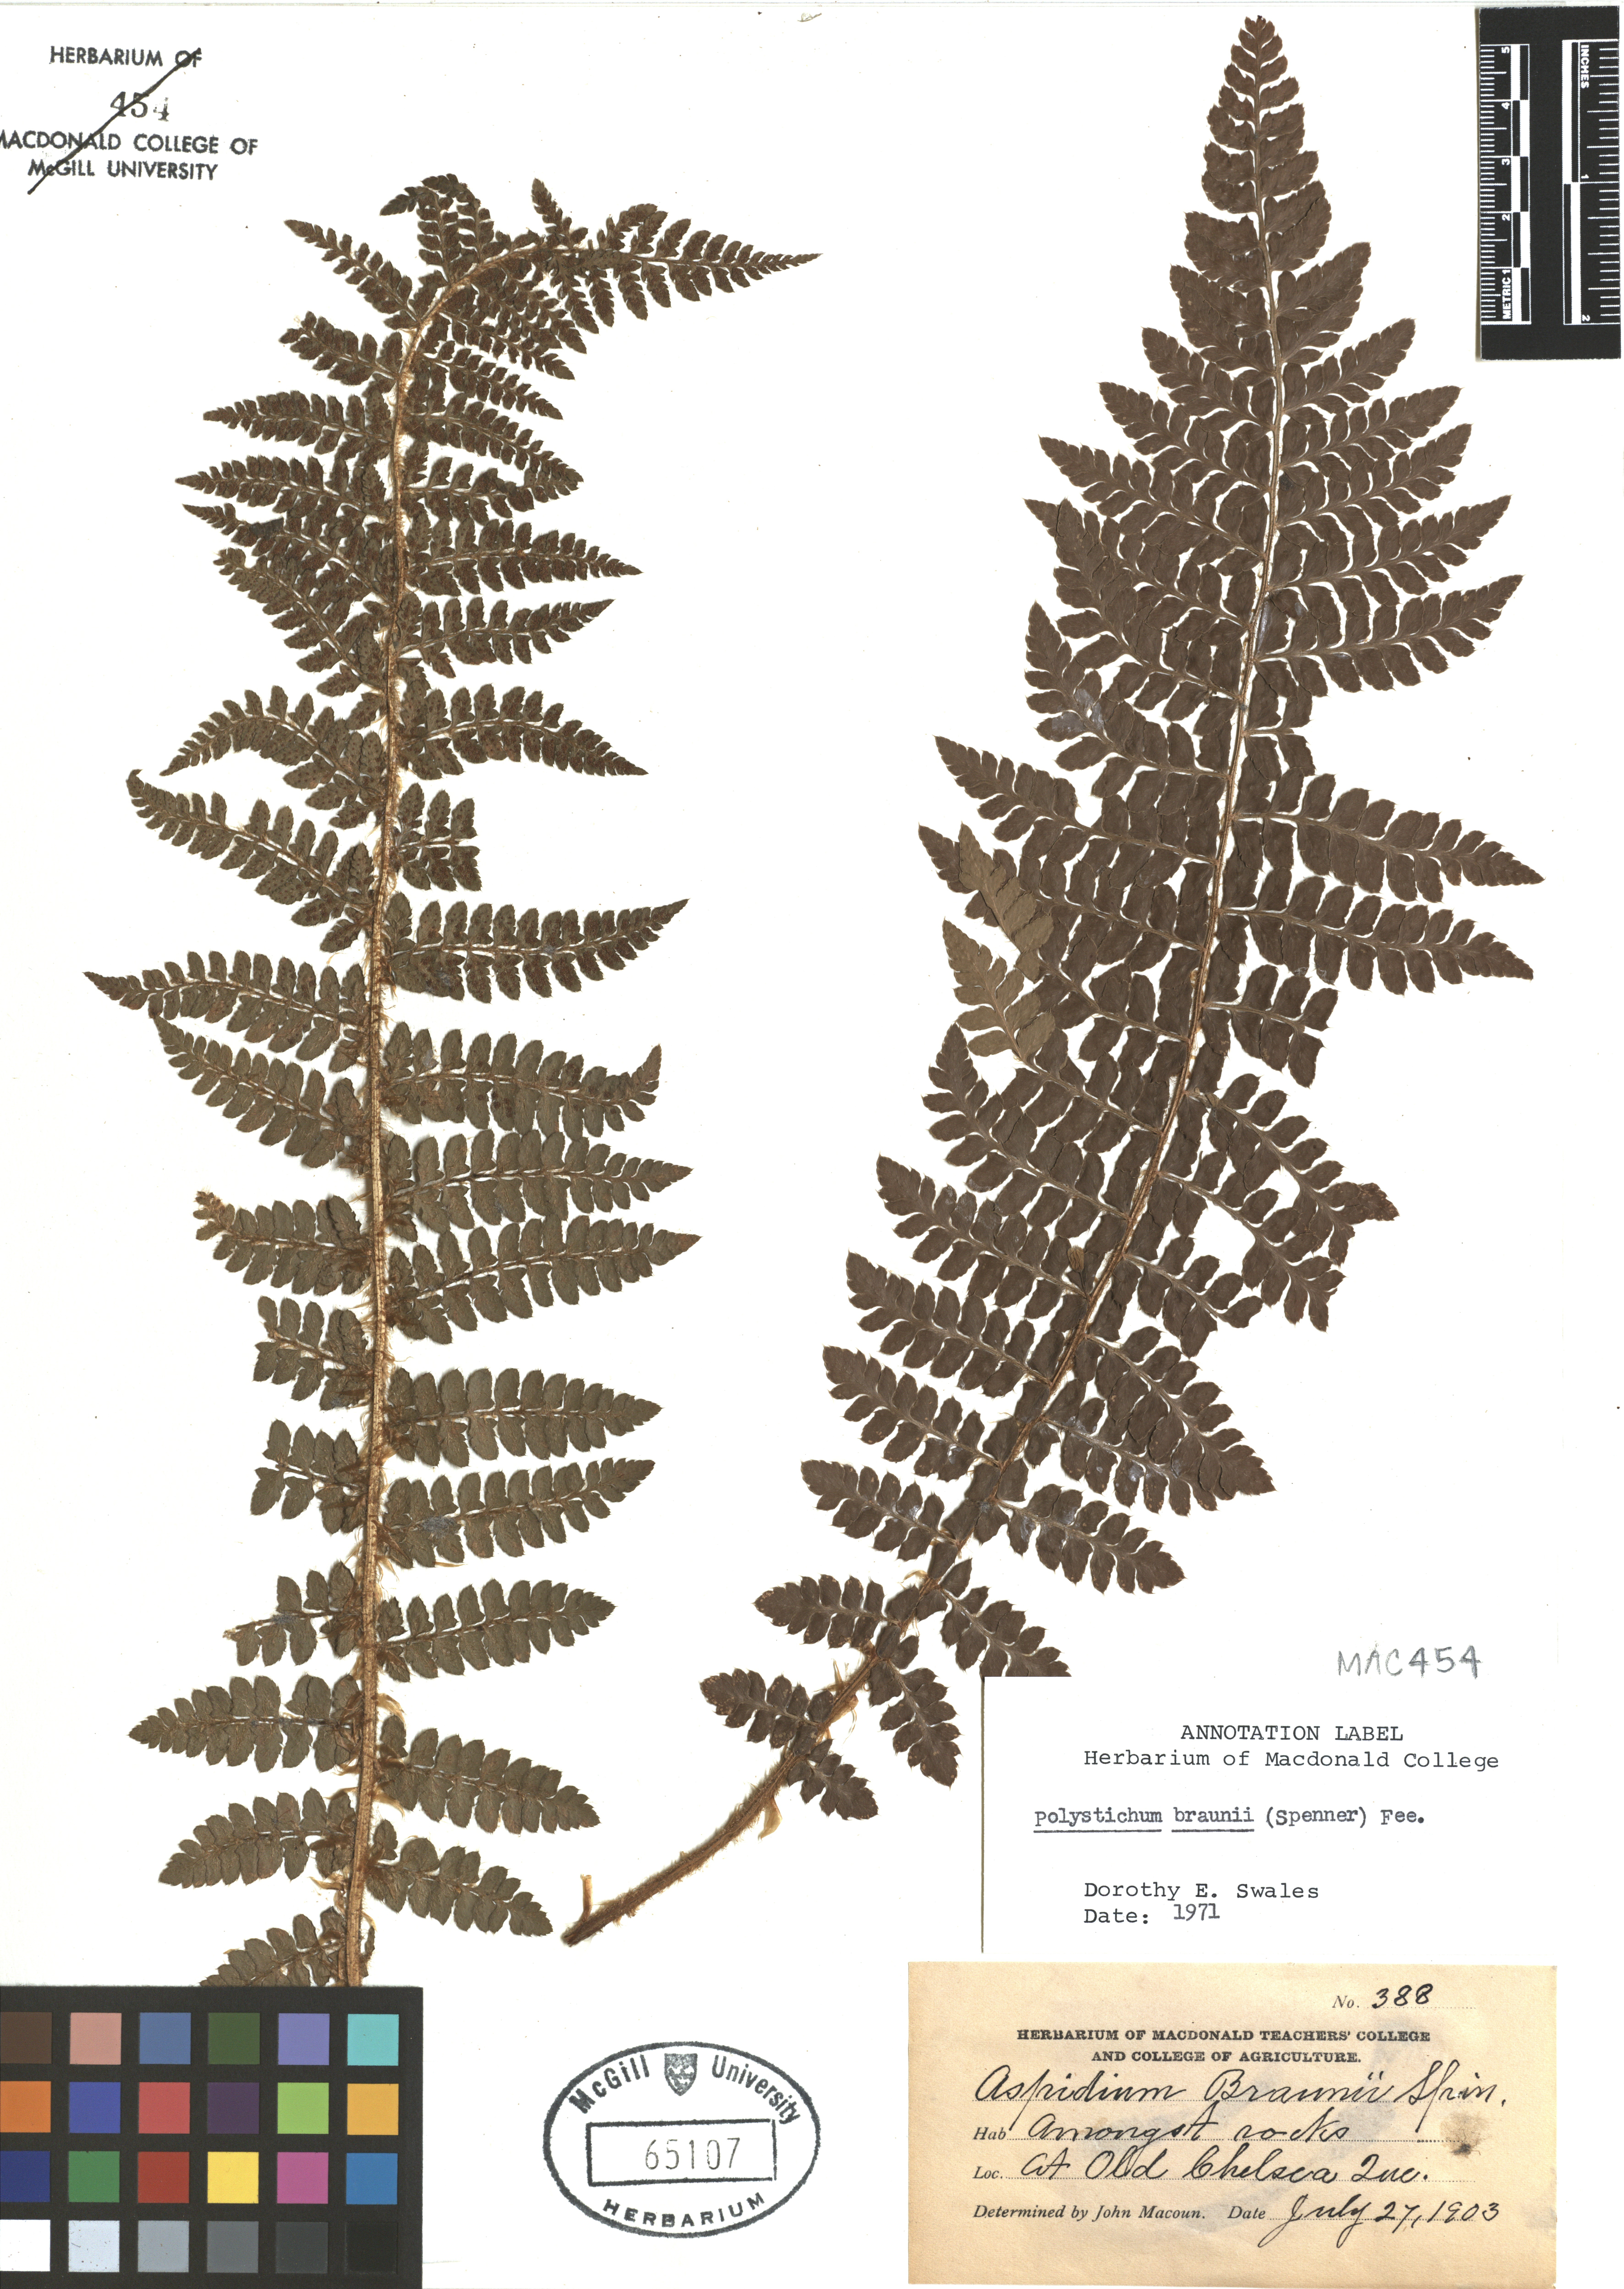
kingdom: Plantae
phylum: Tracheophyta
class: Polypodiopsida
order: Polypodiales
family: Dryopteridaceae
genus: Polystichum
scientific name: Polystichum braunii
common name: Braun's holly fern
